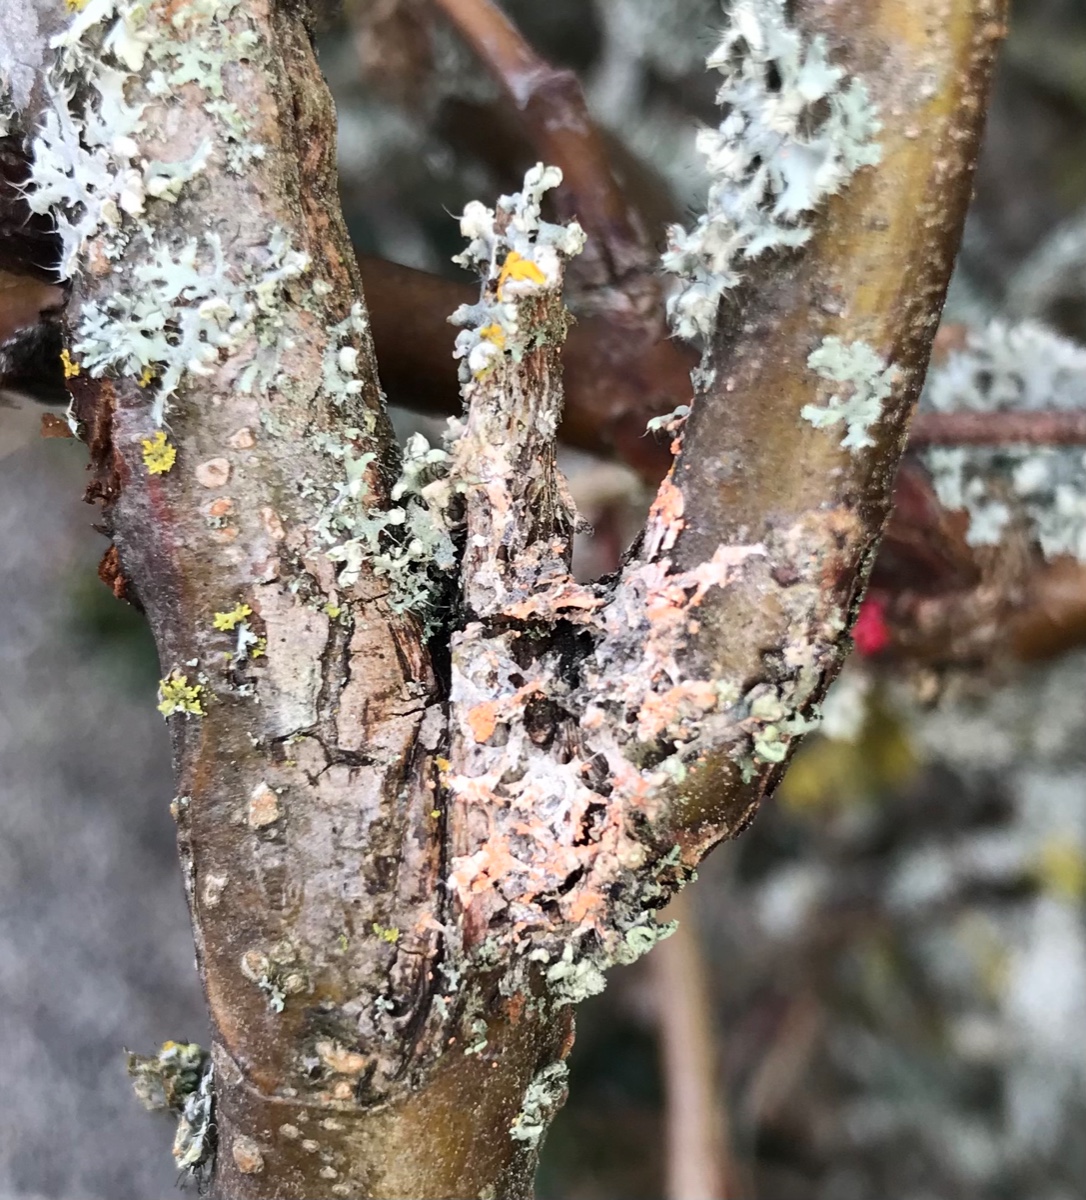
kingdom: Fungi
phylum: Basidiomycota
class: Agaricomycetes
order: Corticiales
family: Corticiaceae
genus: Erythricium
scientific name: Erythricium aurantiacum
